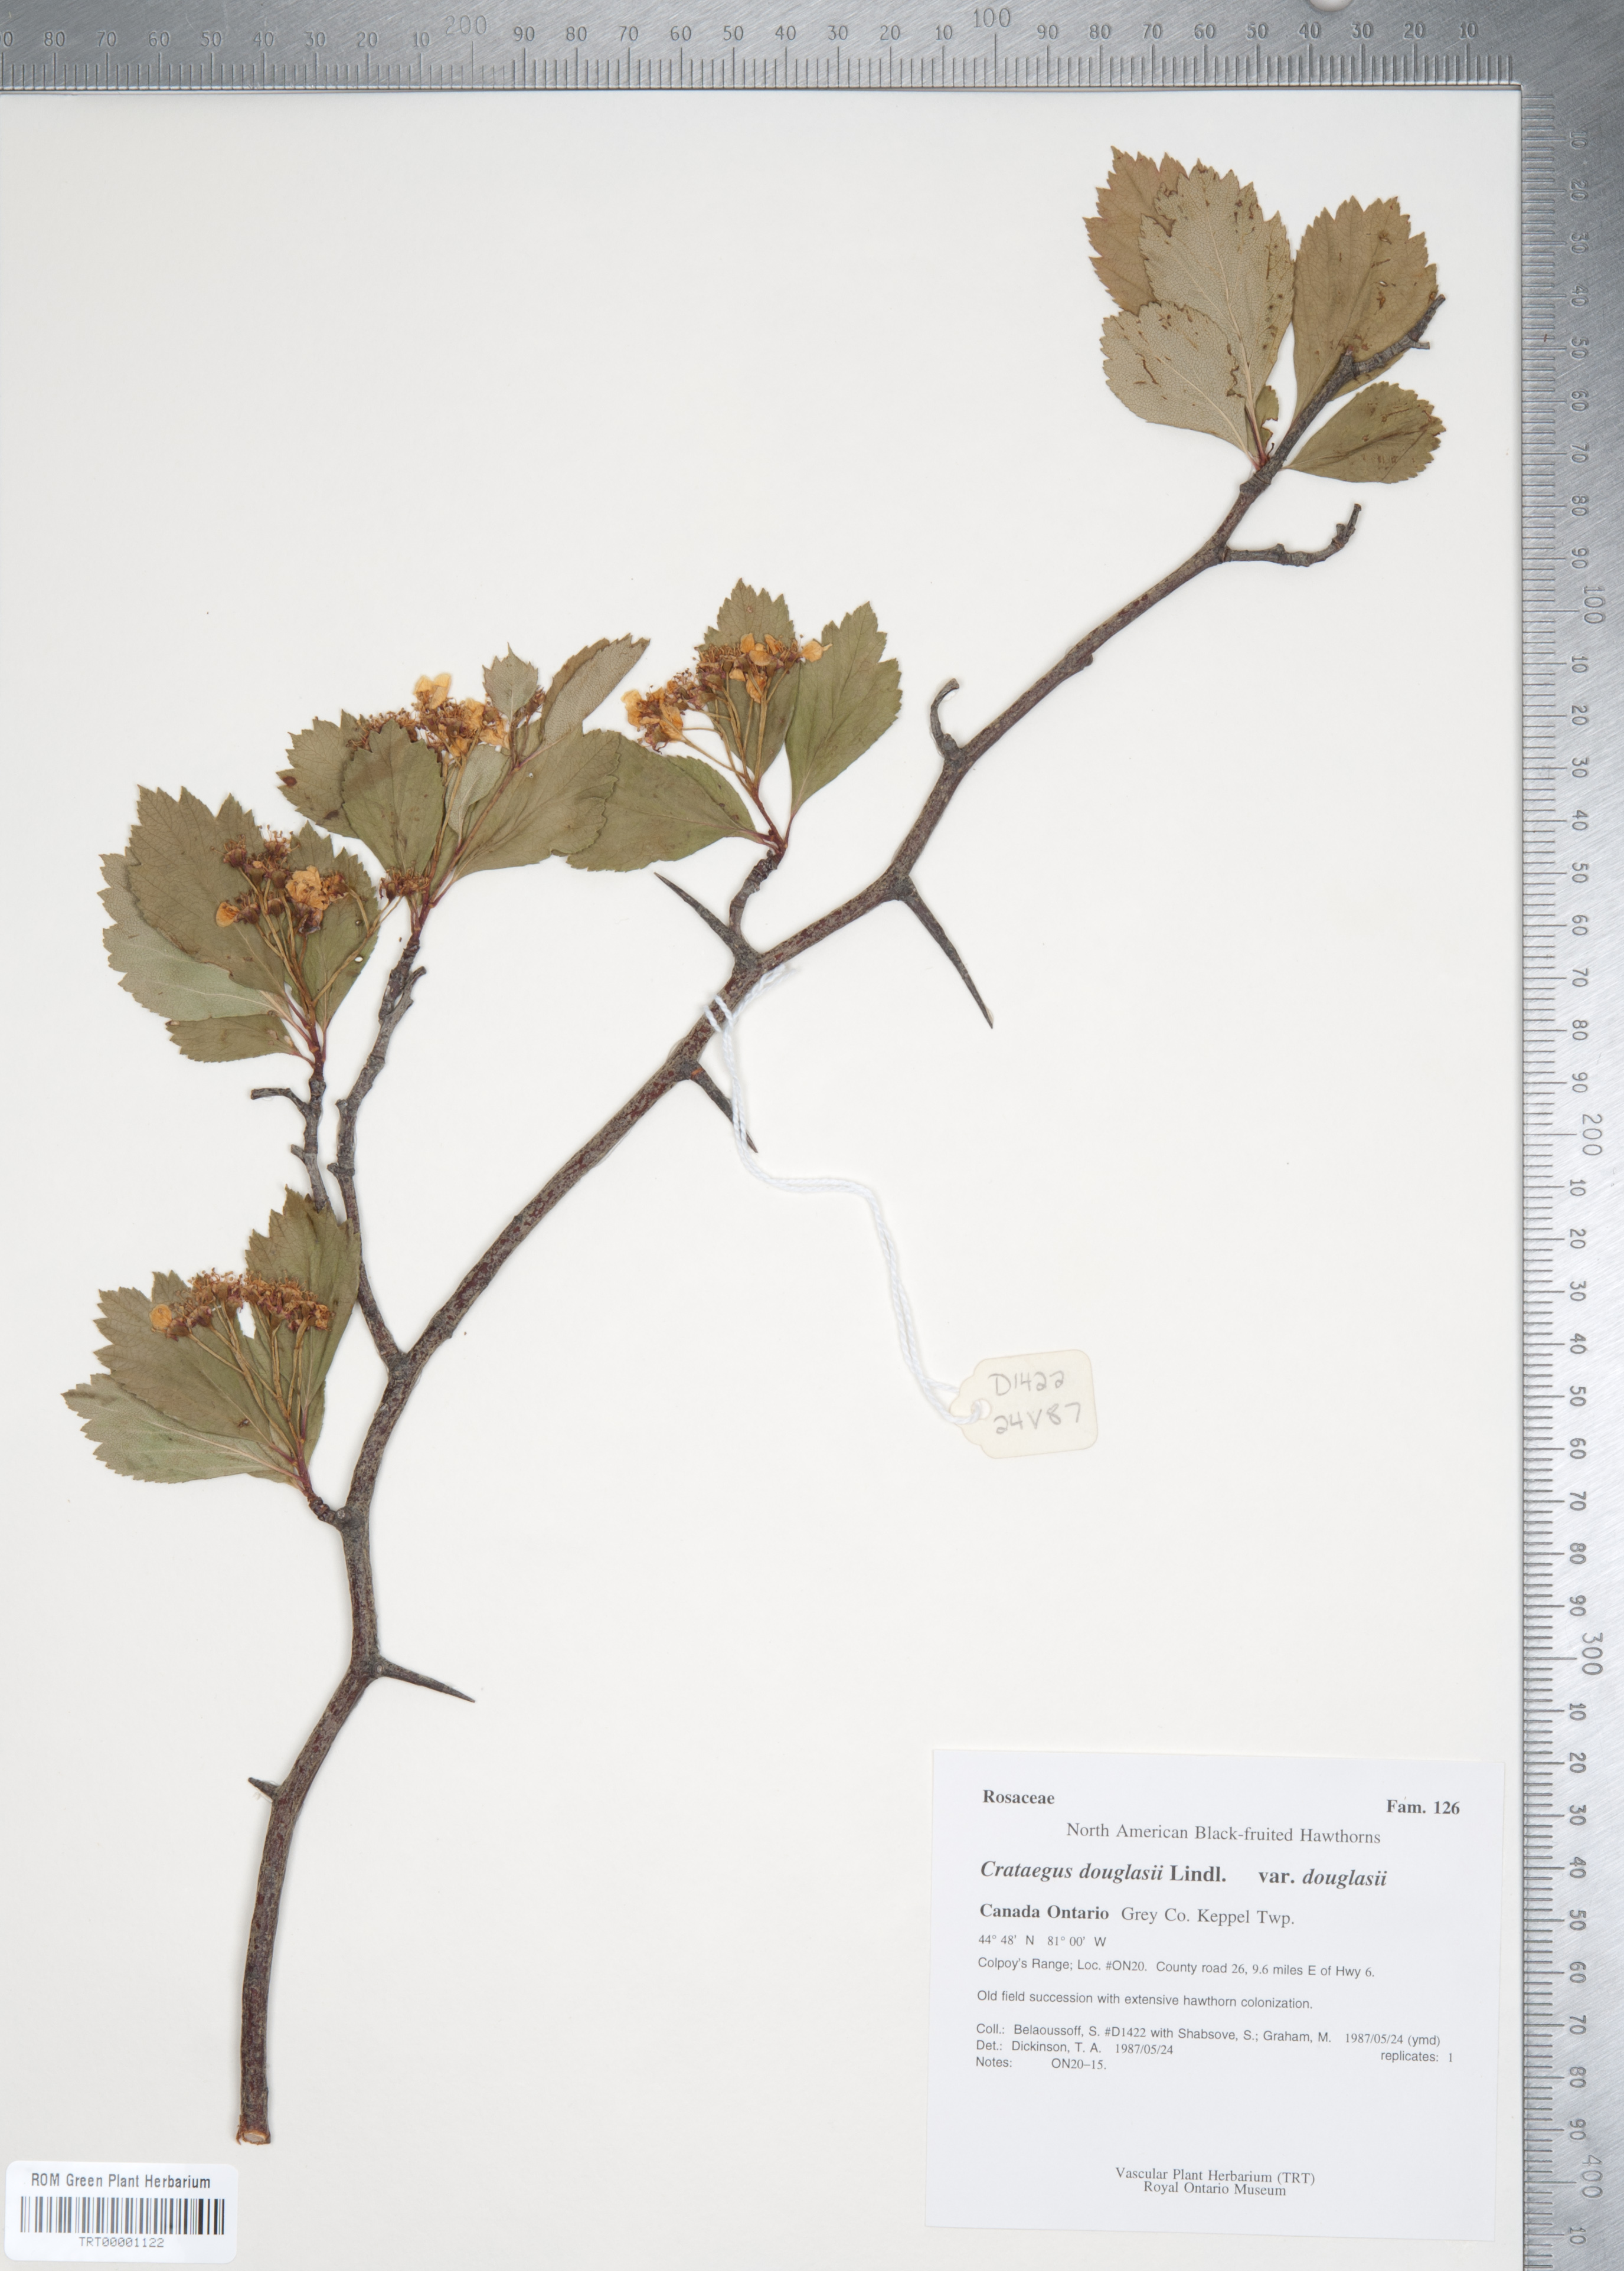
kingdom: Plantae
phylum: Tracheophyta
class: Magnoliopsida
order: Rosales
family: Rosaceae
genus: Crataegus
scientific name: Crataegus douglasii
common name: Black hawthorn
